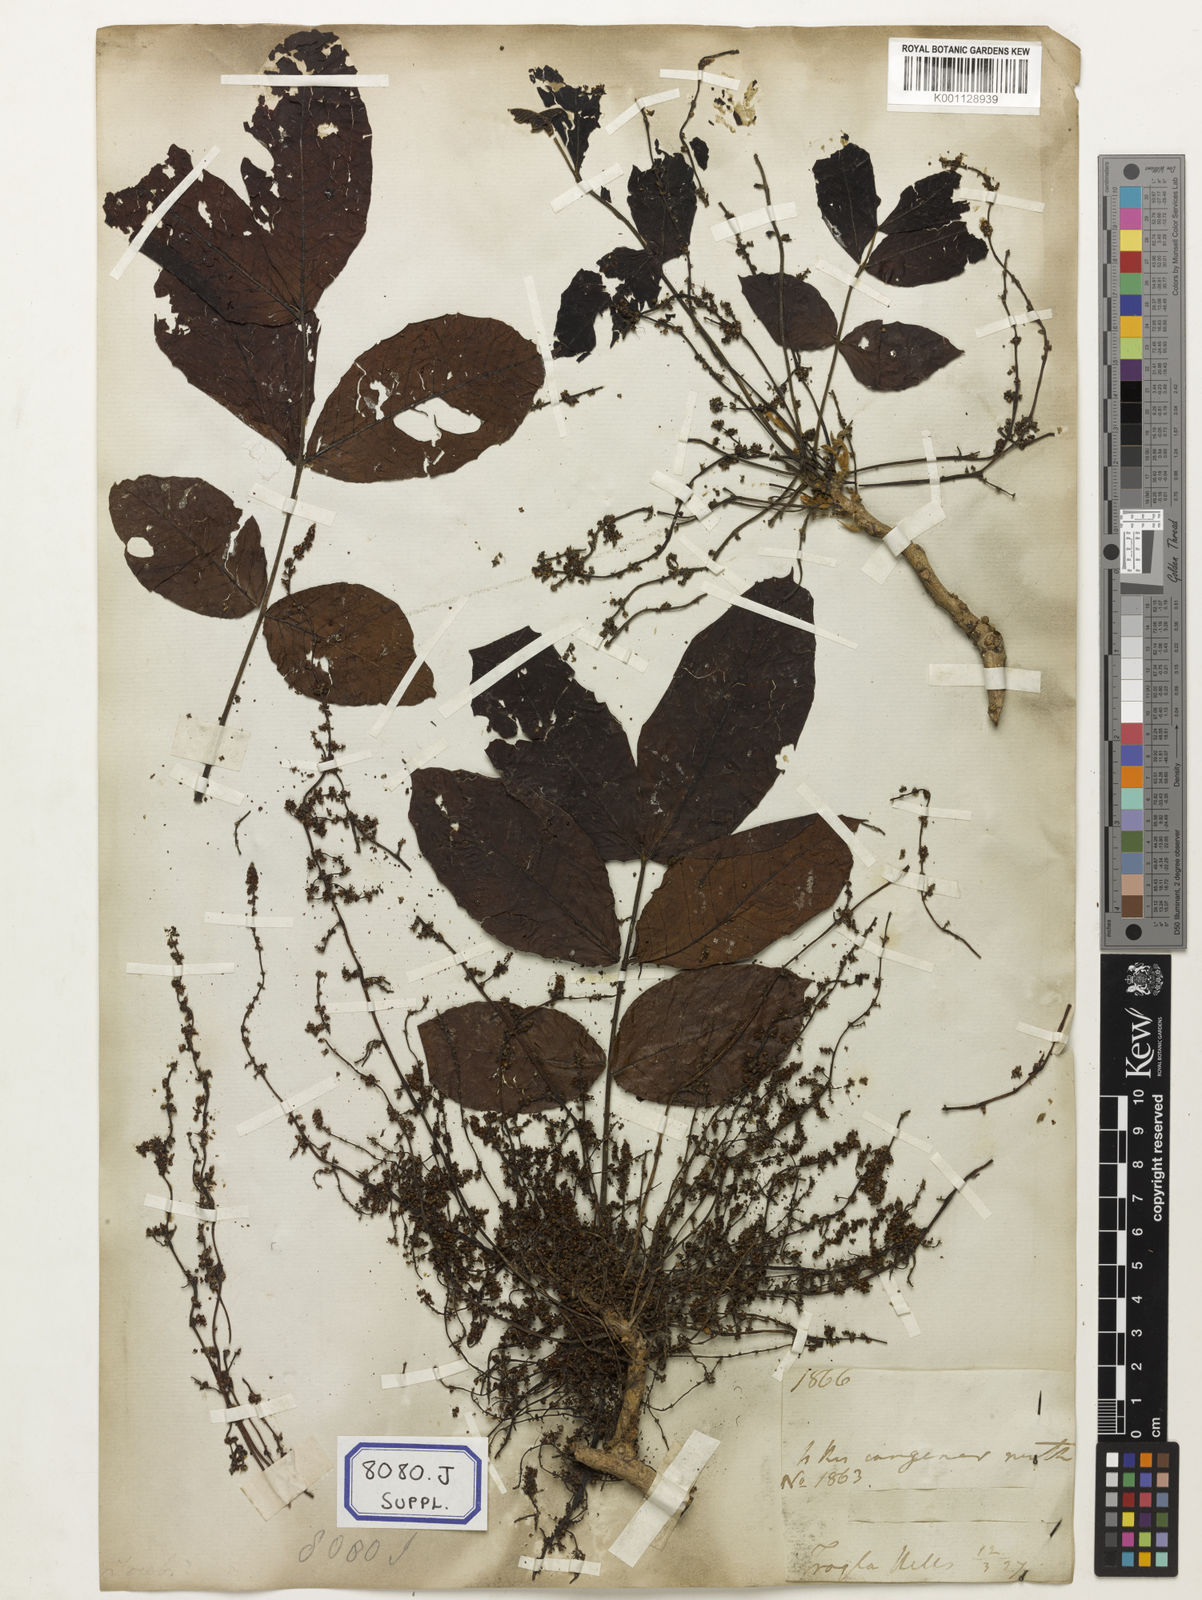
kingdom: Plantae
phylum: Tracheophyta
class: Magnoliopsida
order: Sapindales
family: Sapindaceae
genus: Schleichera
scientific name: Schleichera oleosa
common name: Malay lactree
